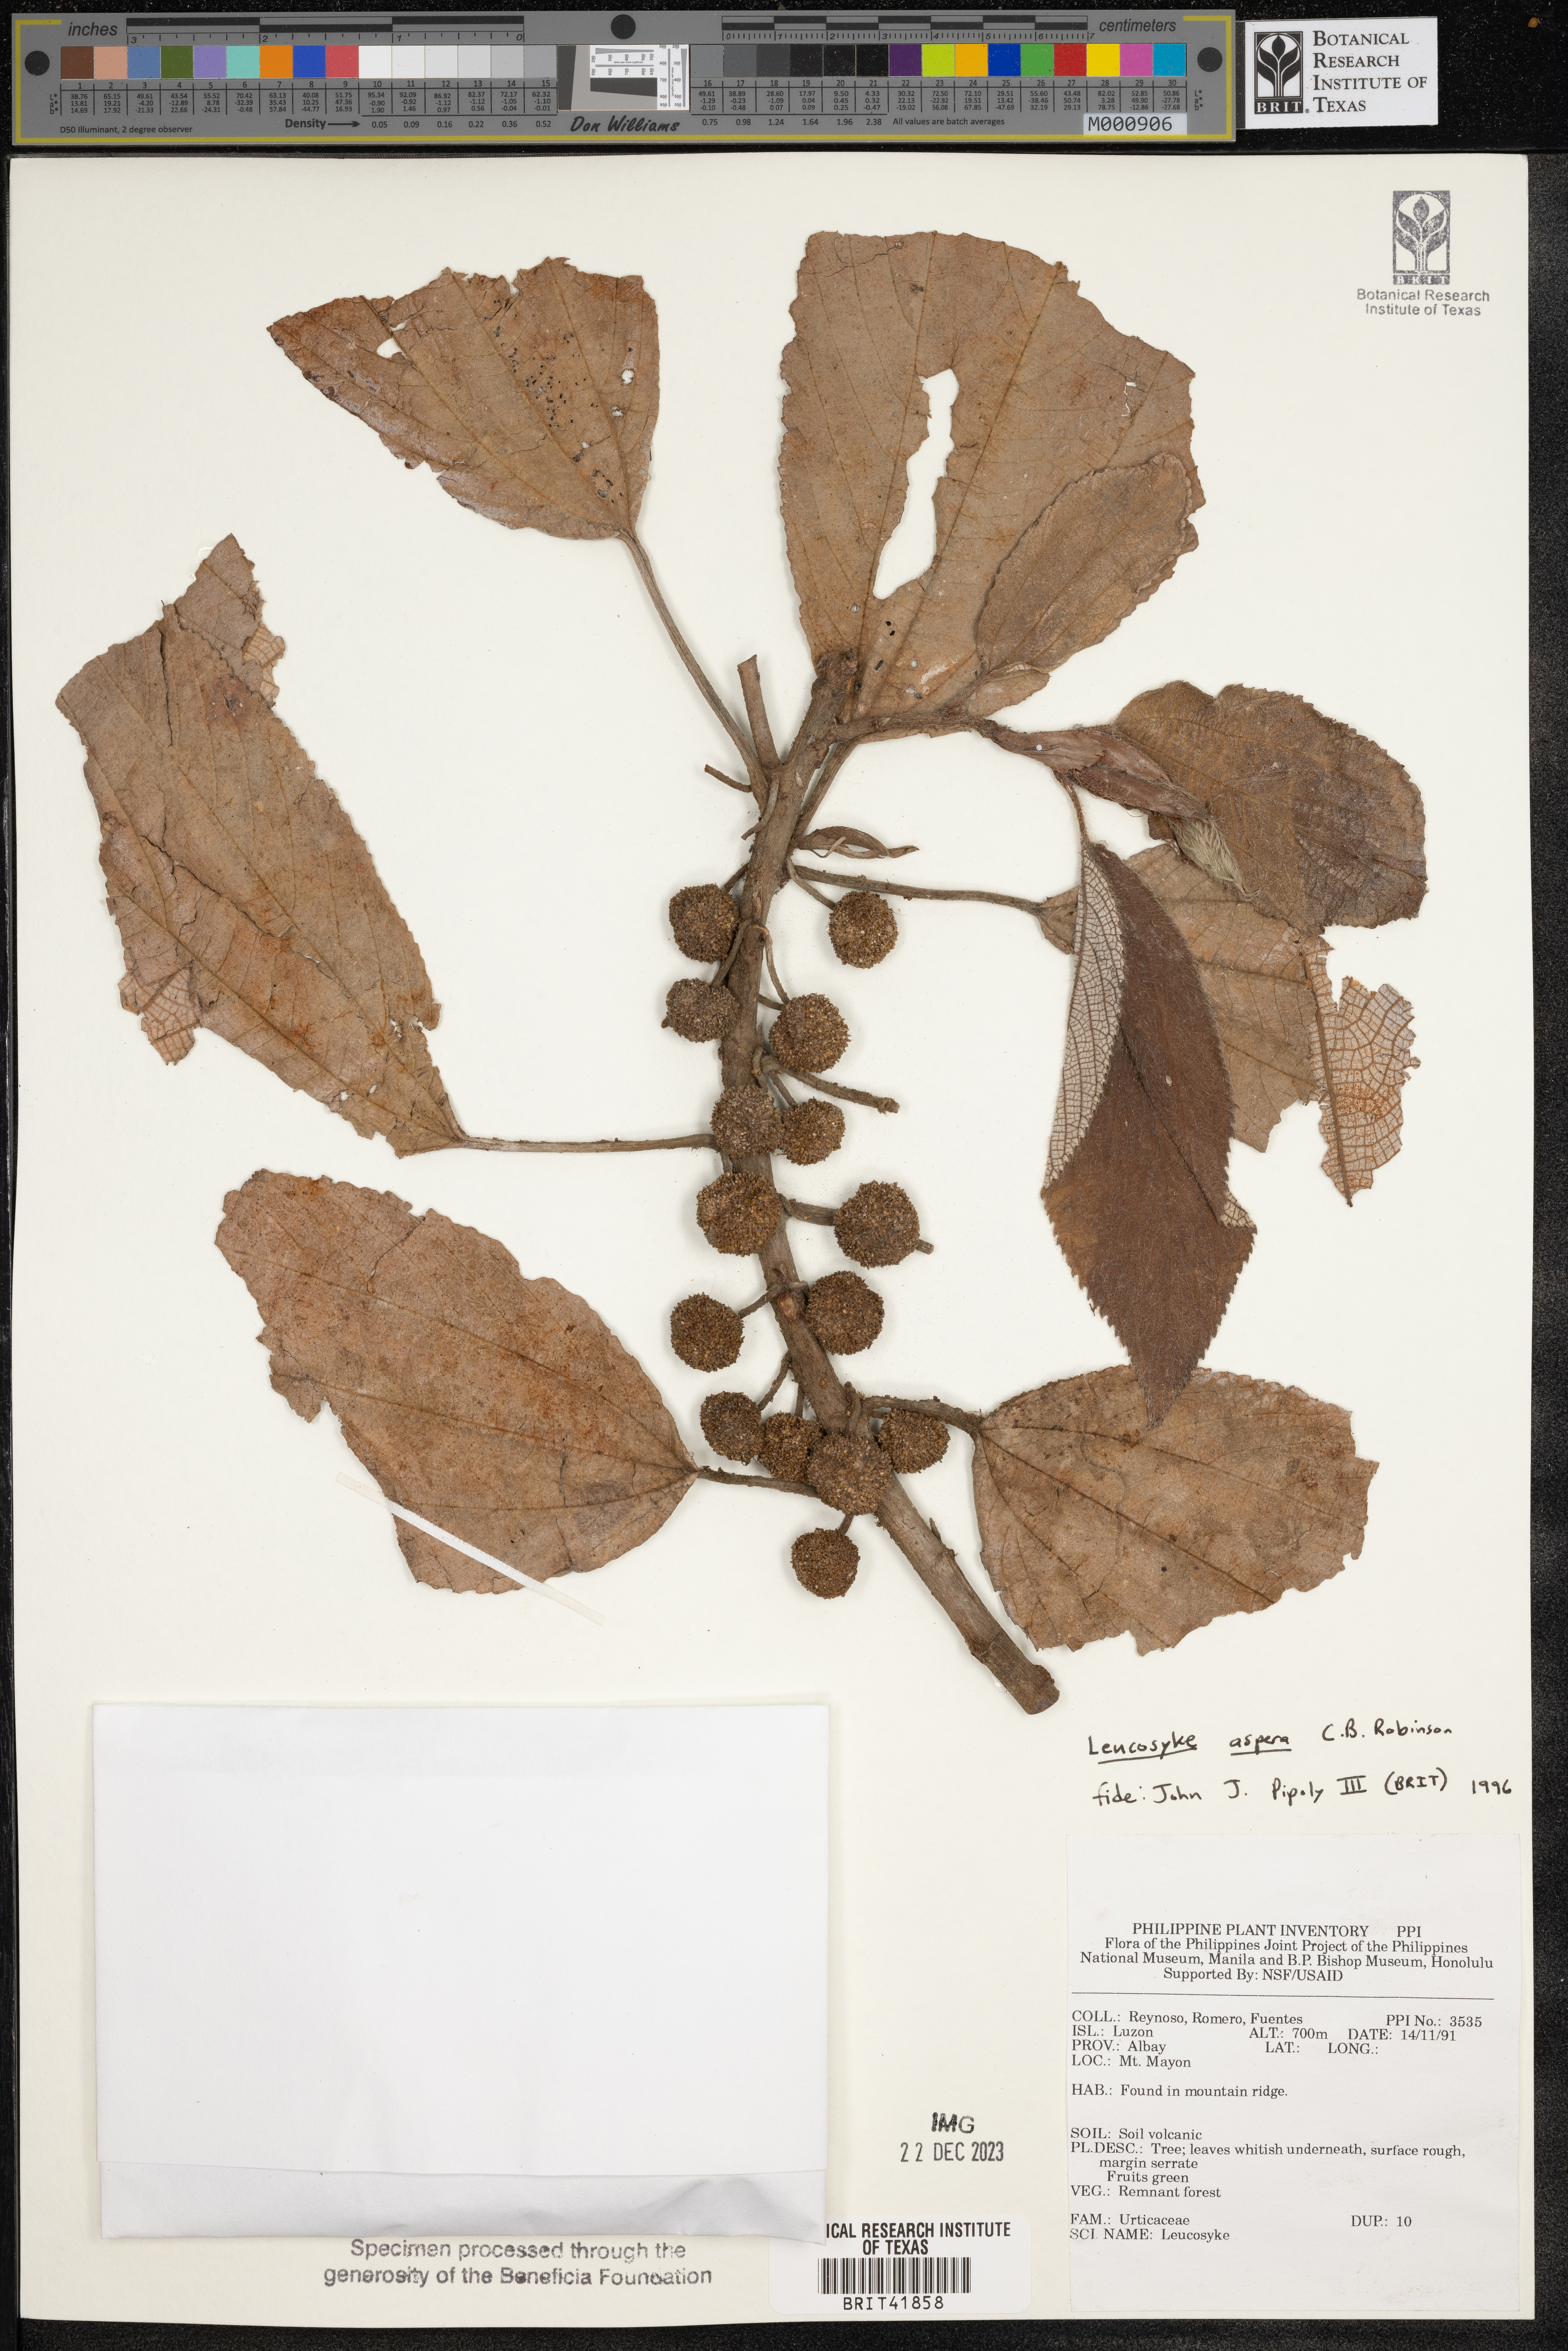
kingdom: Plantae
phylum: Tracheophyta
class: Magnoliopsida
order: Rosales
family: Urticaceae
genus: Leucosyke
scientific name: Leucosyke
